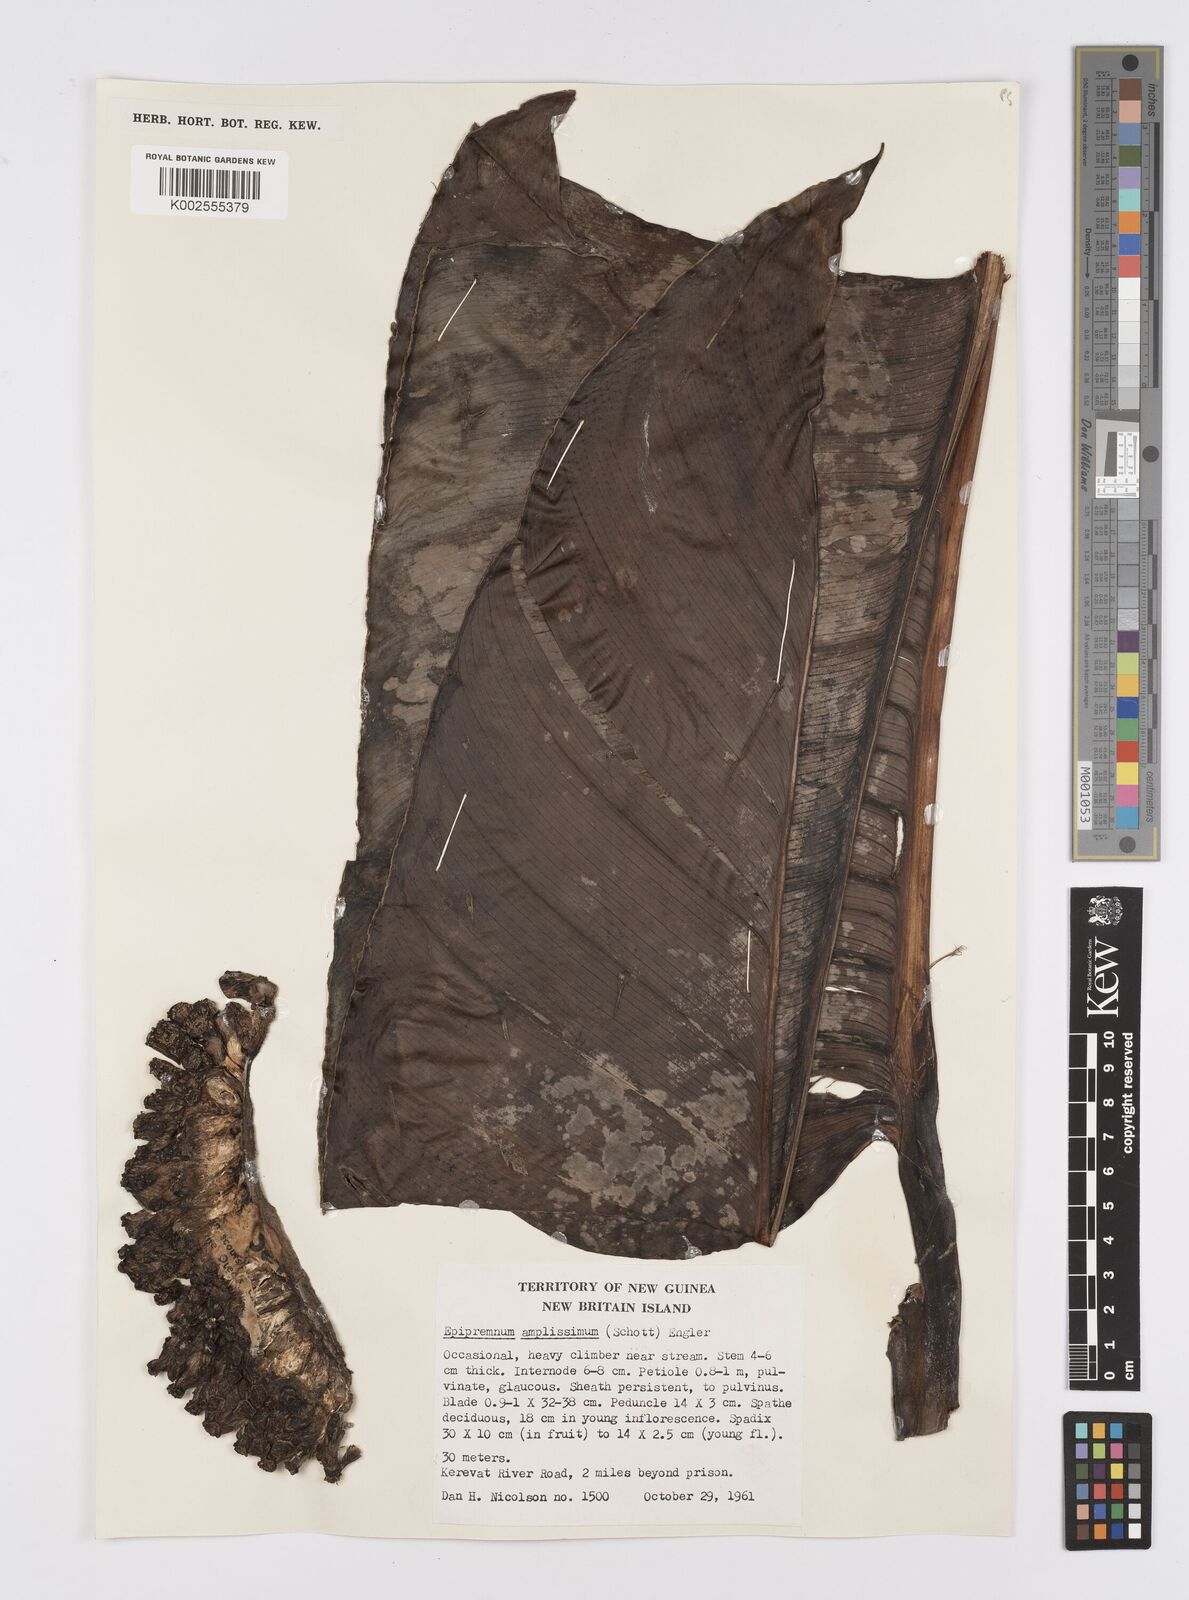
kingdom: Plantae
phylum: Tracheophyta
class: Liliopsida
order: Alismatales
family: Araceae
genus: Epipremnum
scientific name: Epipremnum amplissimum
